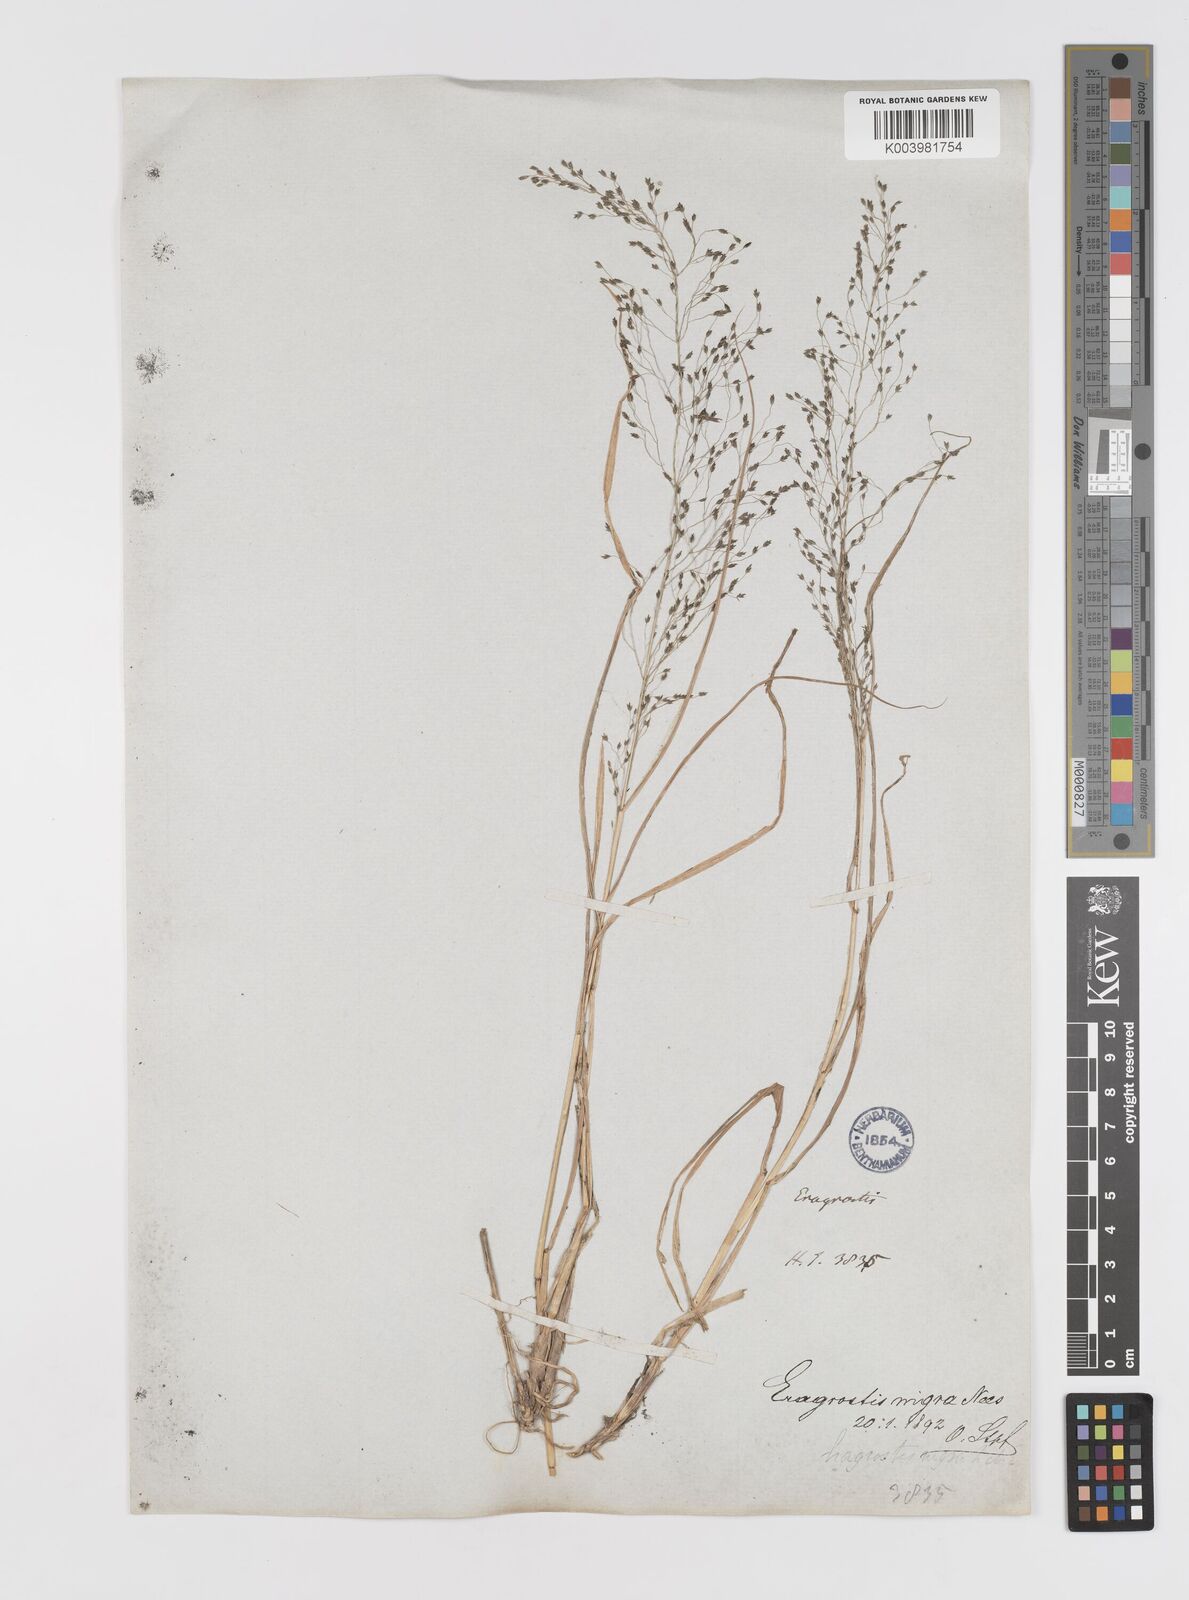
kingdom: Plantae
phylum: Tracheophyta
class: Liliopsida
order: Poales
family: Poaceae
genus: Eragrostis
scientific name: Eragrostis nigra
